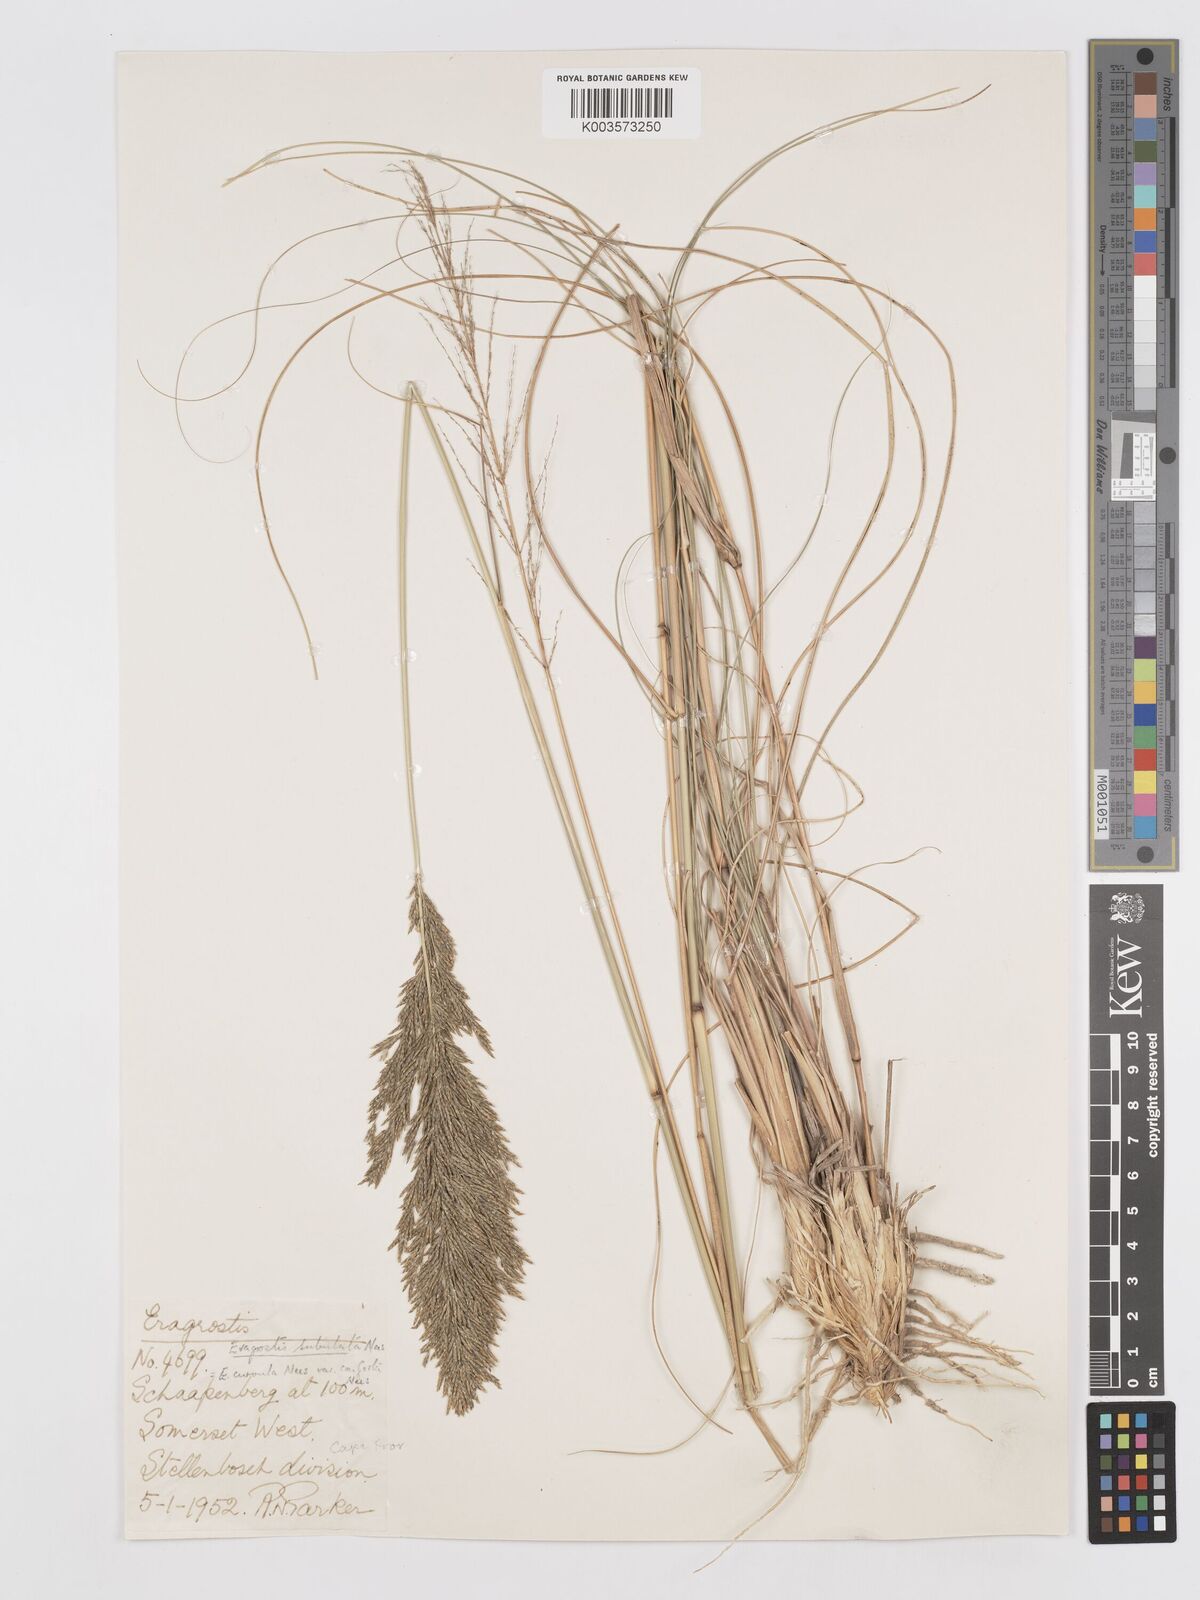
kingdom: Plantae
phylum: Tracheophyta
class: Liliopsida
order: Poales
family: Poaceae
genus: Eragrostis
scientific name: Eragrostis curvula
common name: African love-grass
